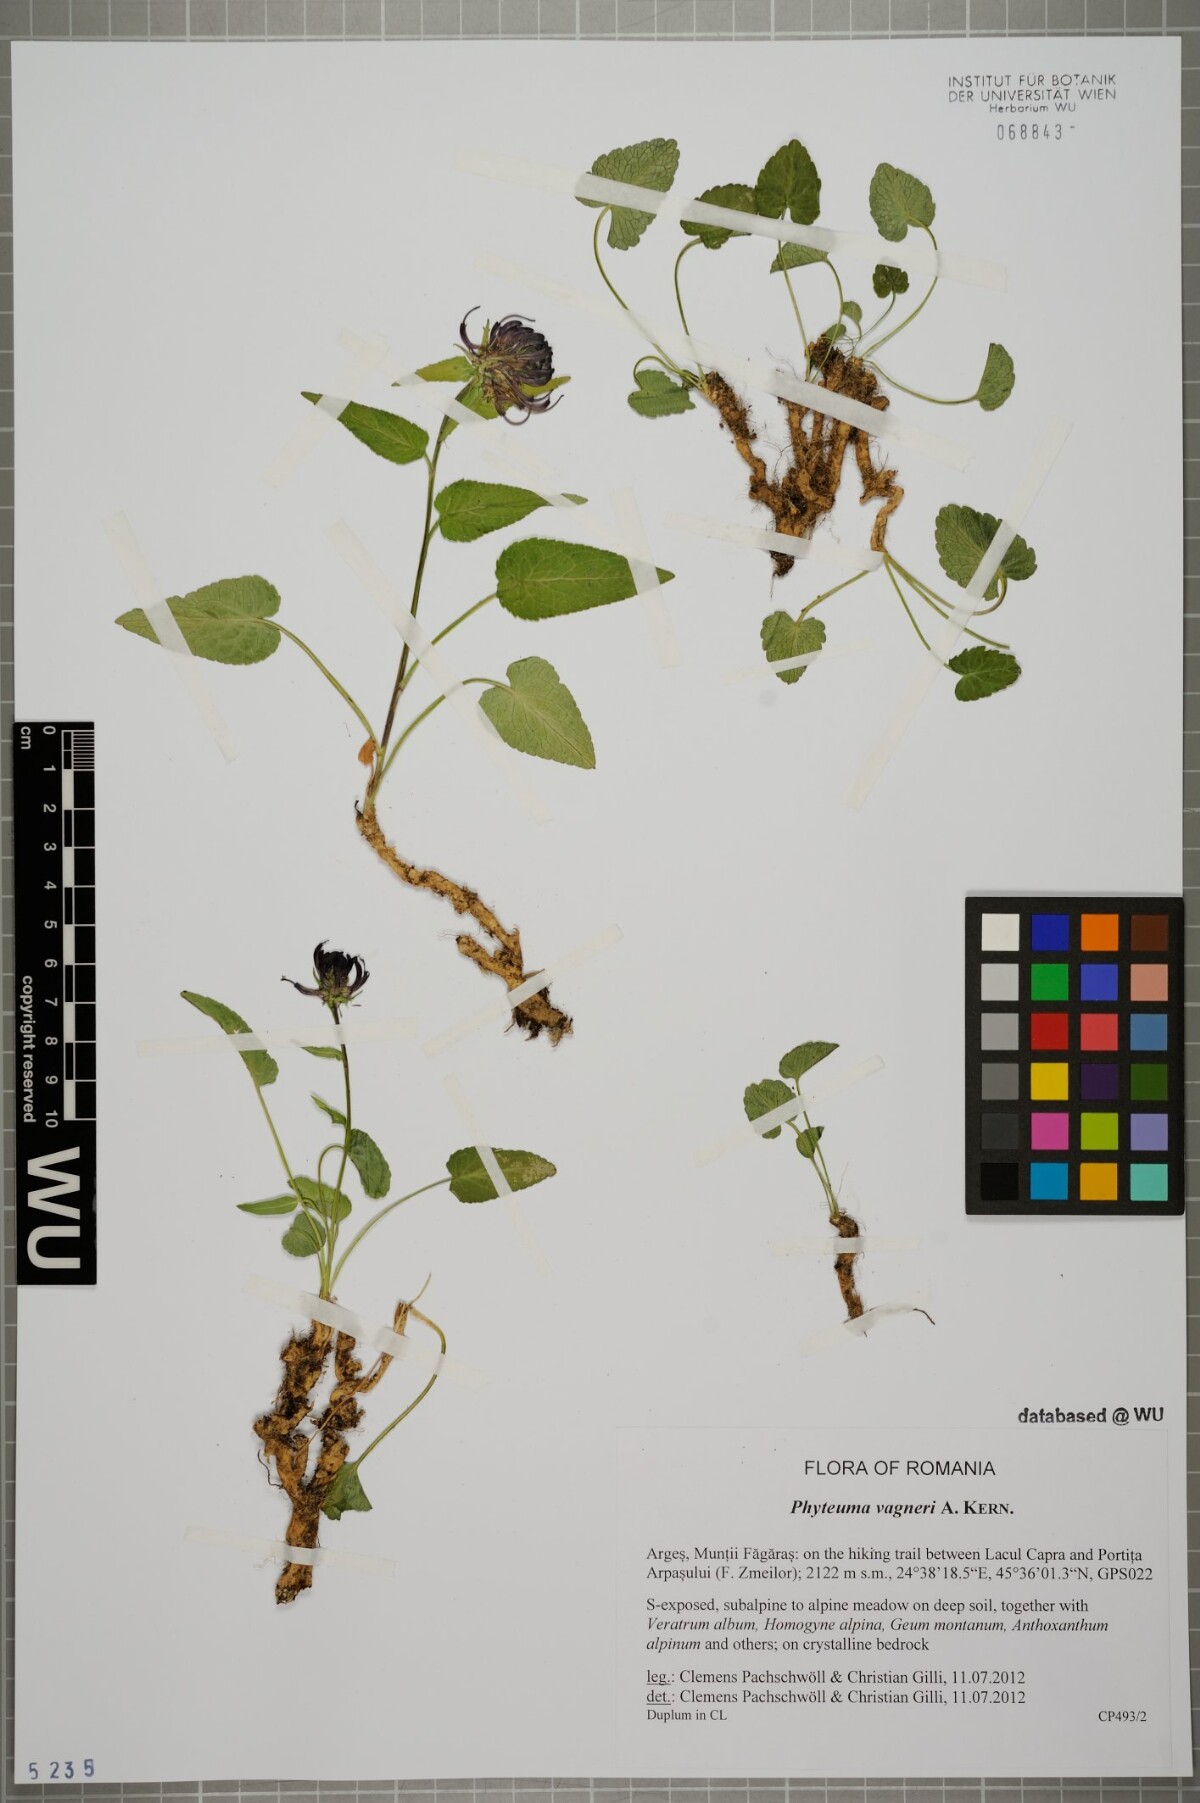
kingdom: Plantae
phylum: Tracheophyta
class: Magnoliopsida
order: Asterales
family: Campanulaceae
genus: Phyteuma
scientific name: Phyteuma vagneri
